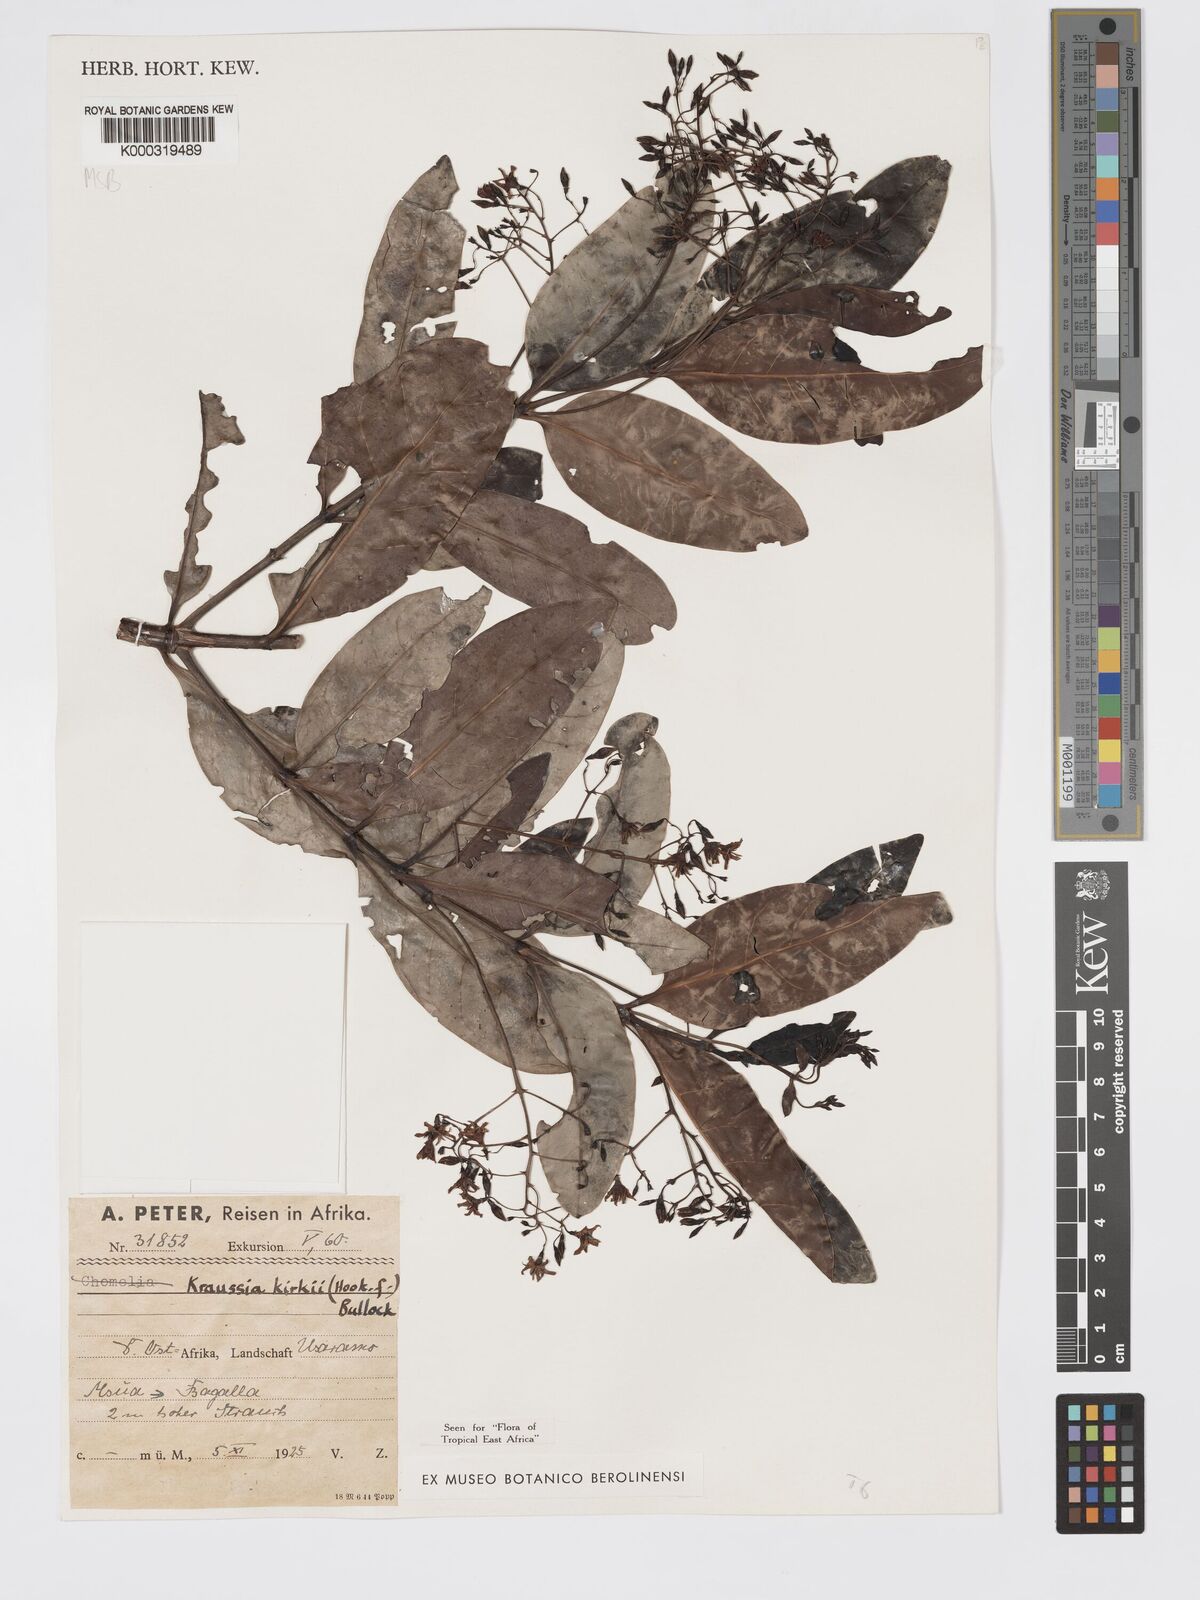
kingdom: Plantae
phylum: Tracheophyta
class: Magnoliopsida
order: Gentianales
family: Rubiaceae
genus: Kraussia
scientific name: Kraussia kirkii
